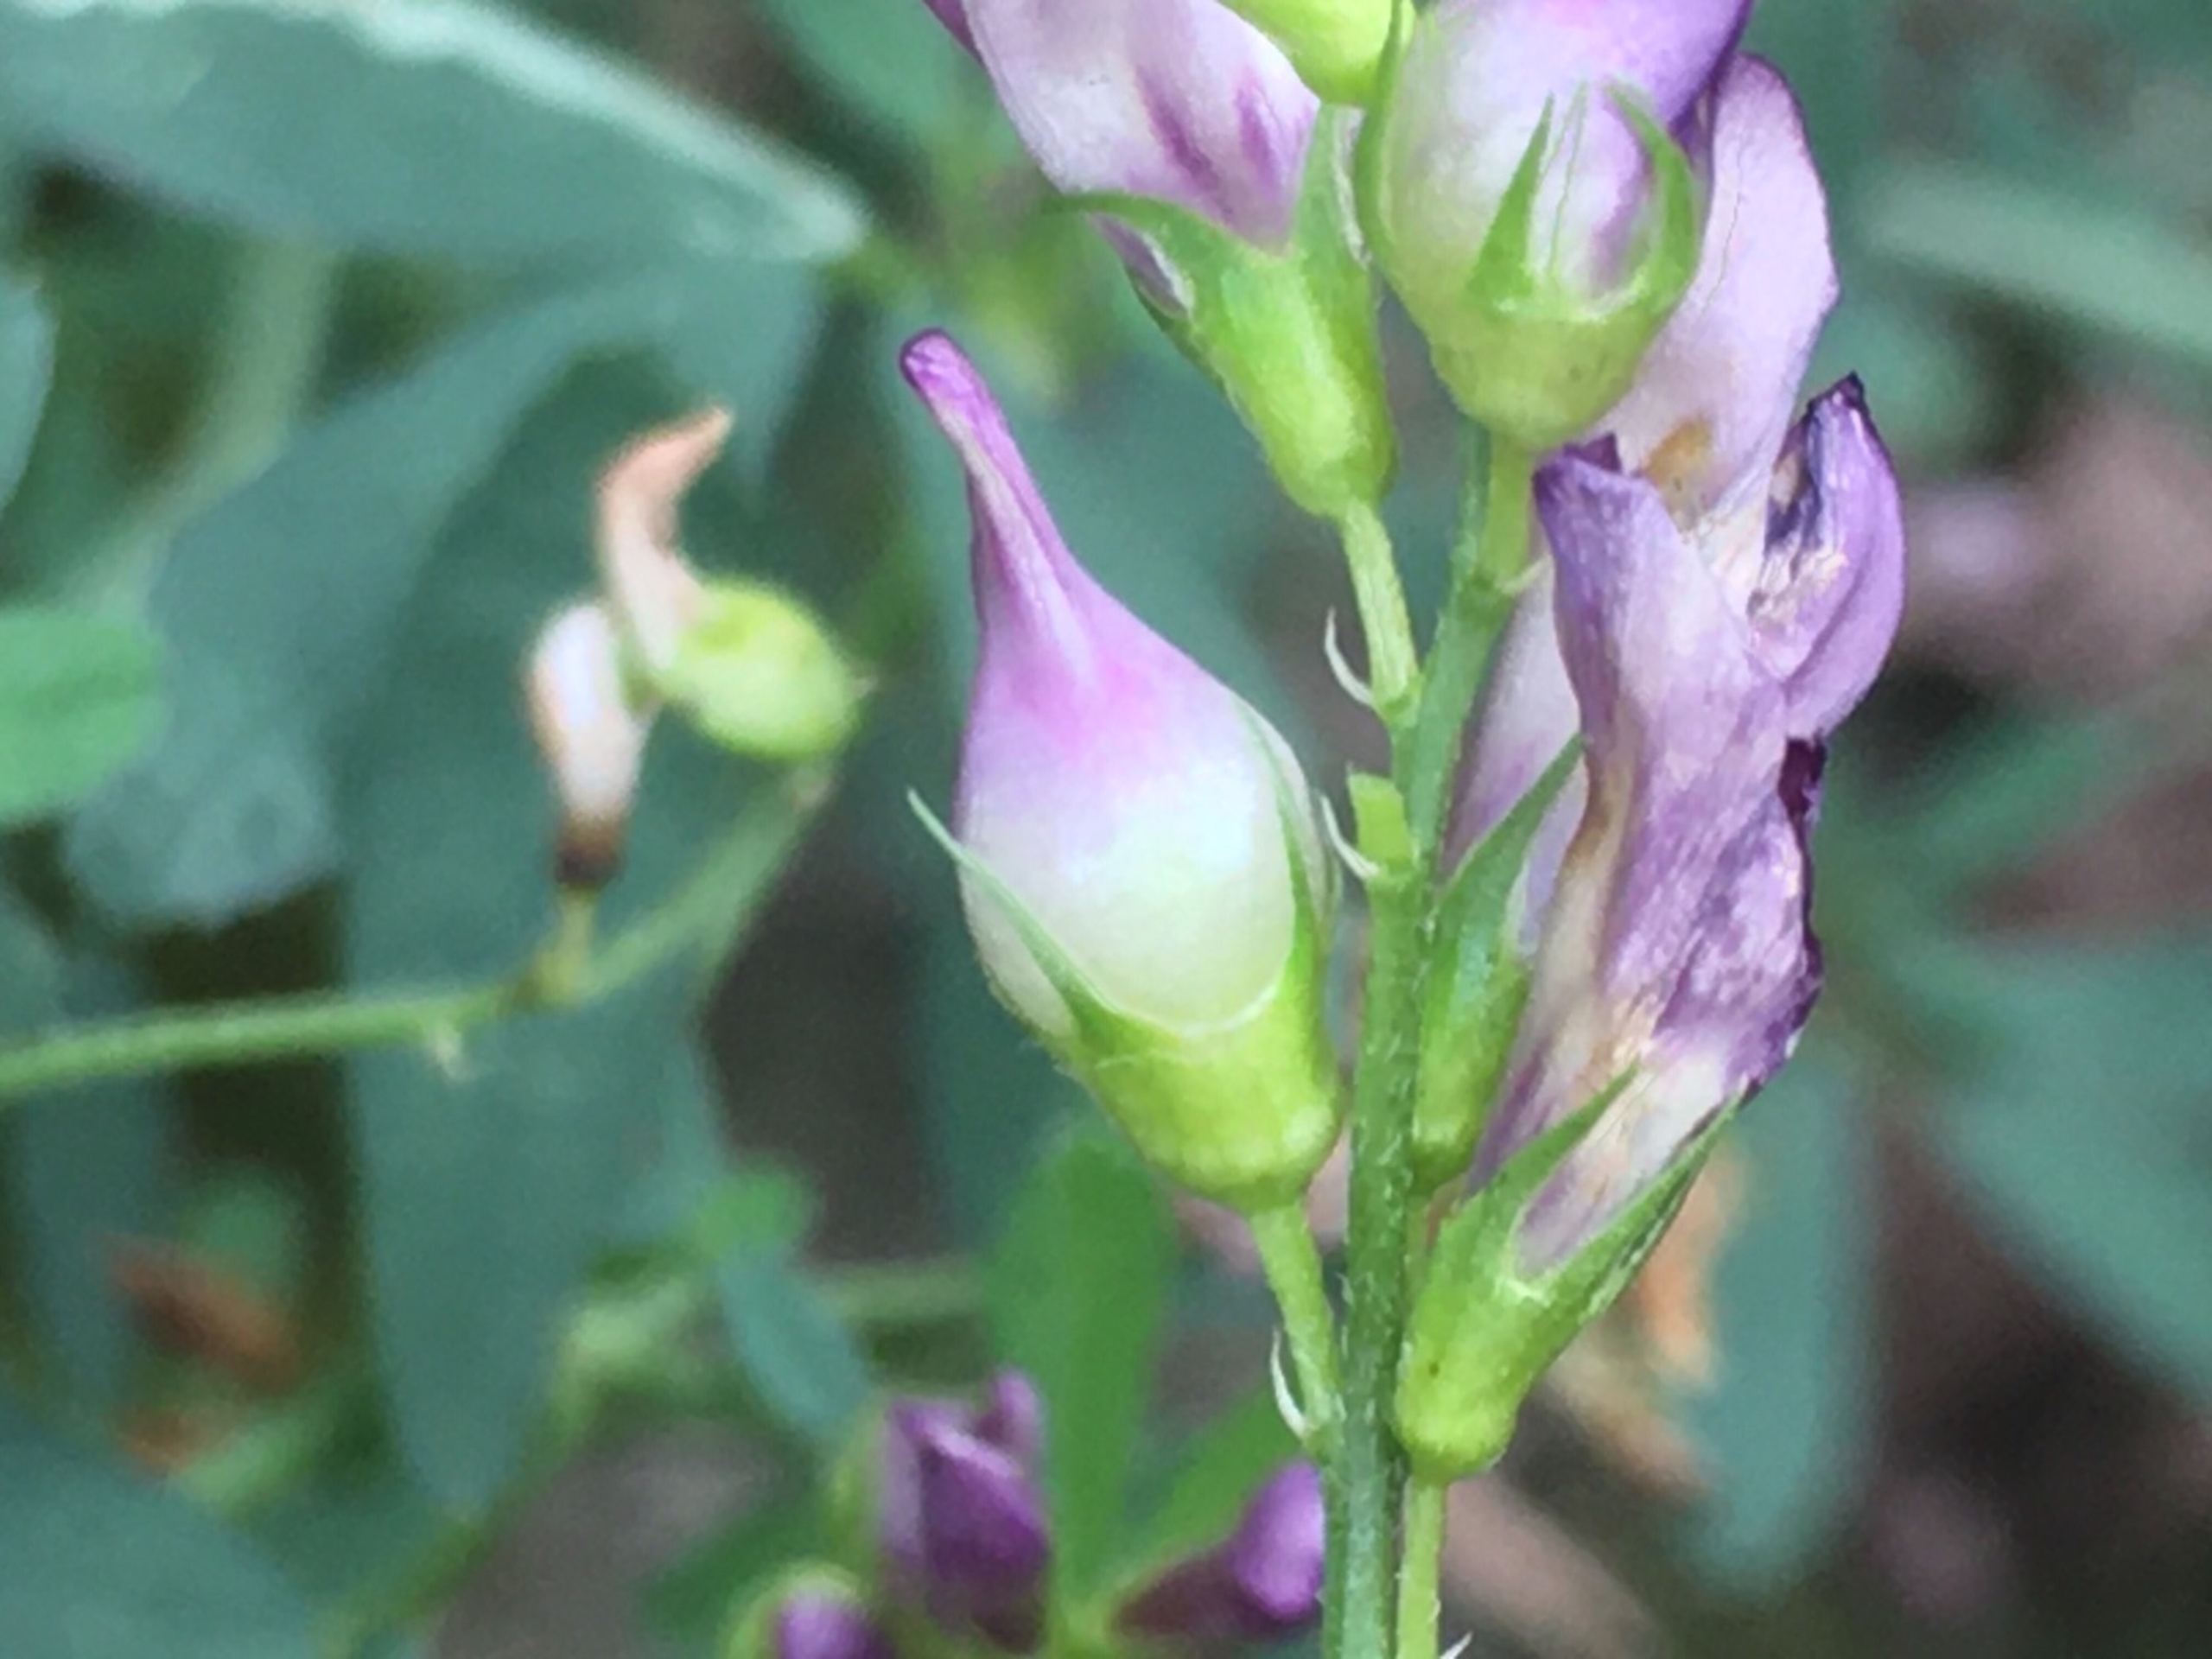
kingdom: Animalia
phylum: Arthropoda
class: Insecta
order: Diptera
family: Cecidomyiidae
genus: Contarinia
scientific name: Contarinia medicaginis
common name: Lucerneblomstgalmyg
